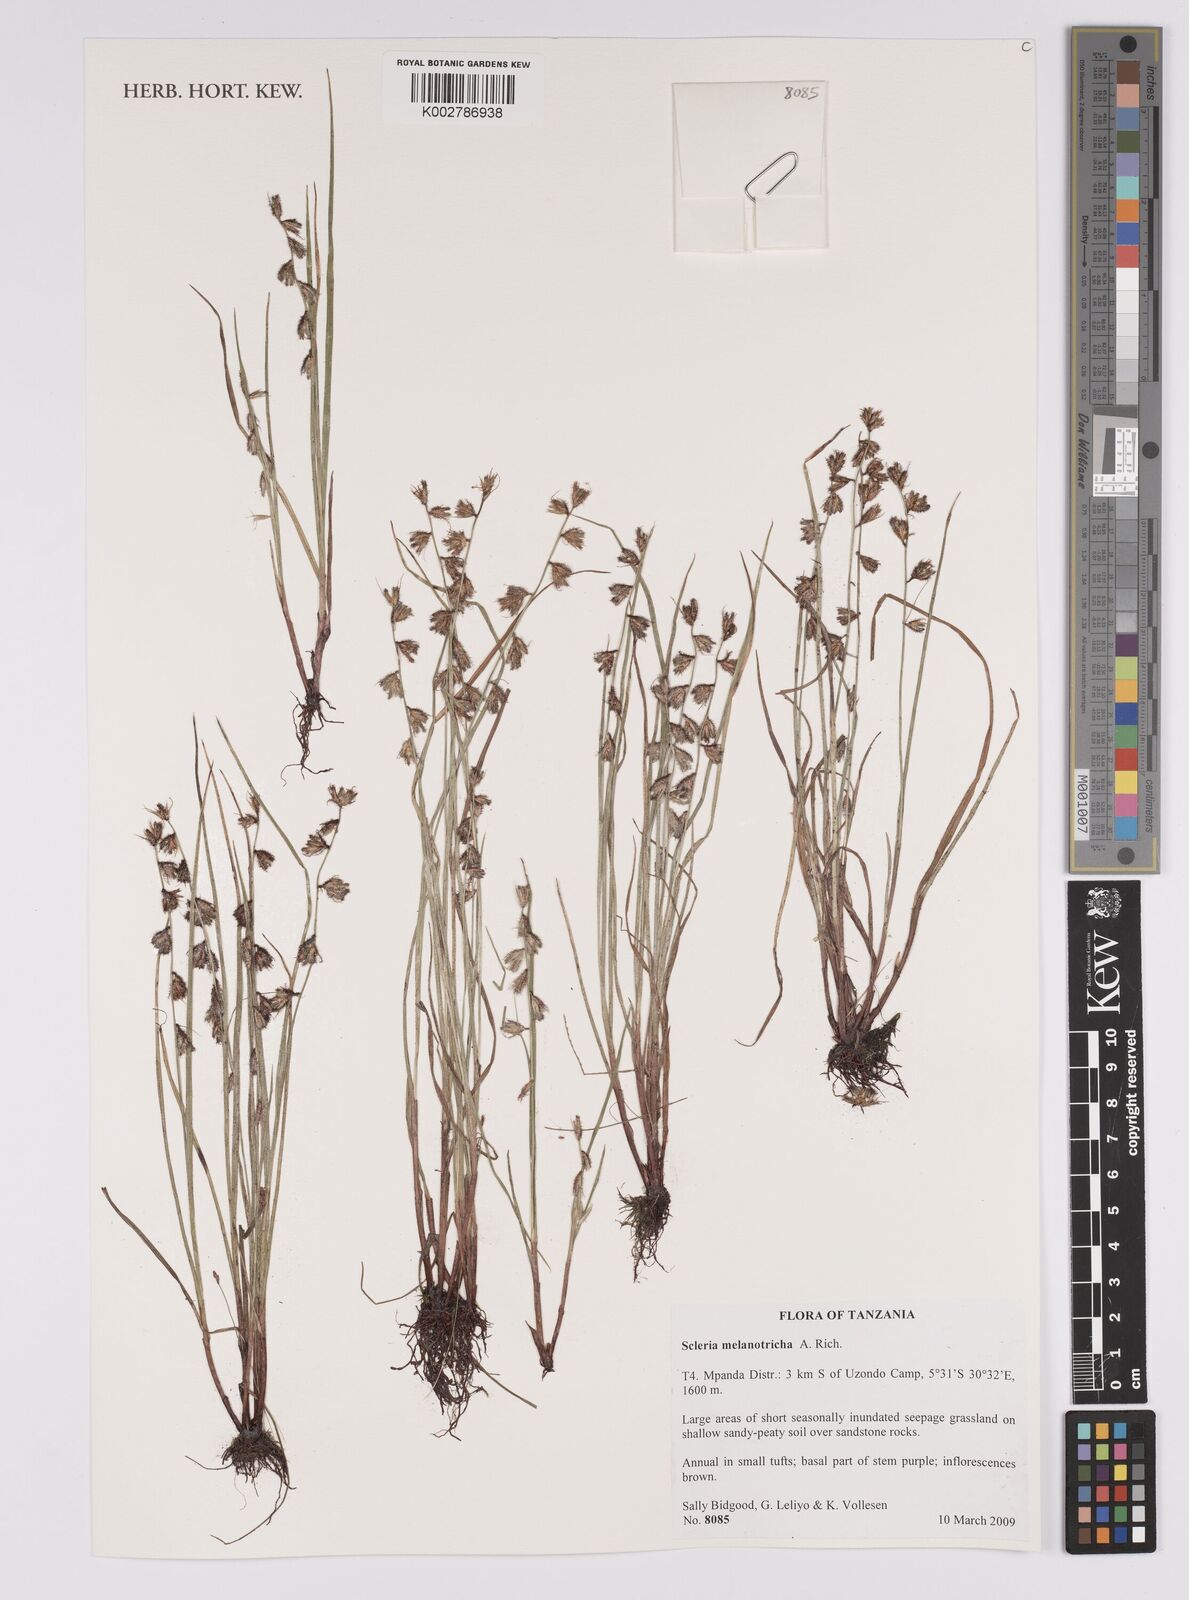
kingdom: Plantae
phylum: Tracheophyta
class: Liliopsida
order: Poales
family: Cyperaceae
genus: Scleria
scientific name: Scleria melanotricha
